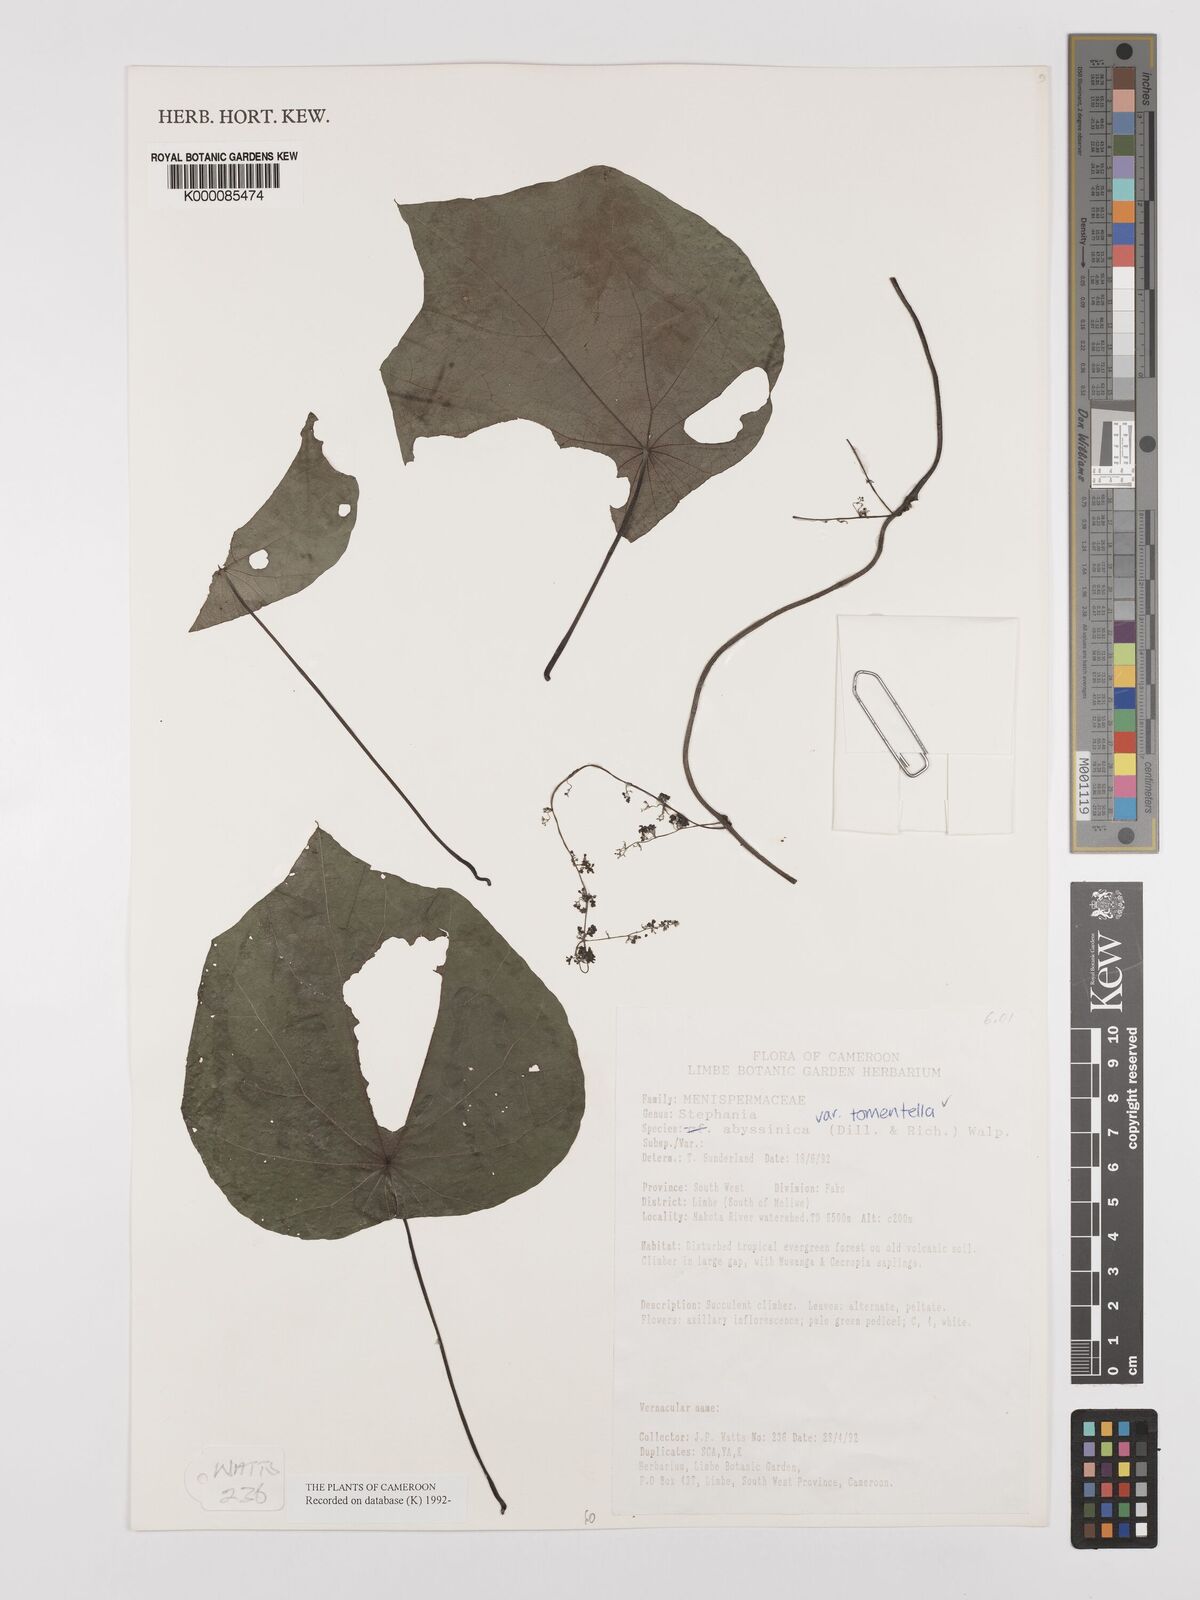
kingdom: Plantae
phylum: Tracheophyta
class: Magnoliopsida
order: Ranunculales
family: Menispermaceae
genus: Stephania
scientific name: Stephania abyssinica
